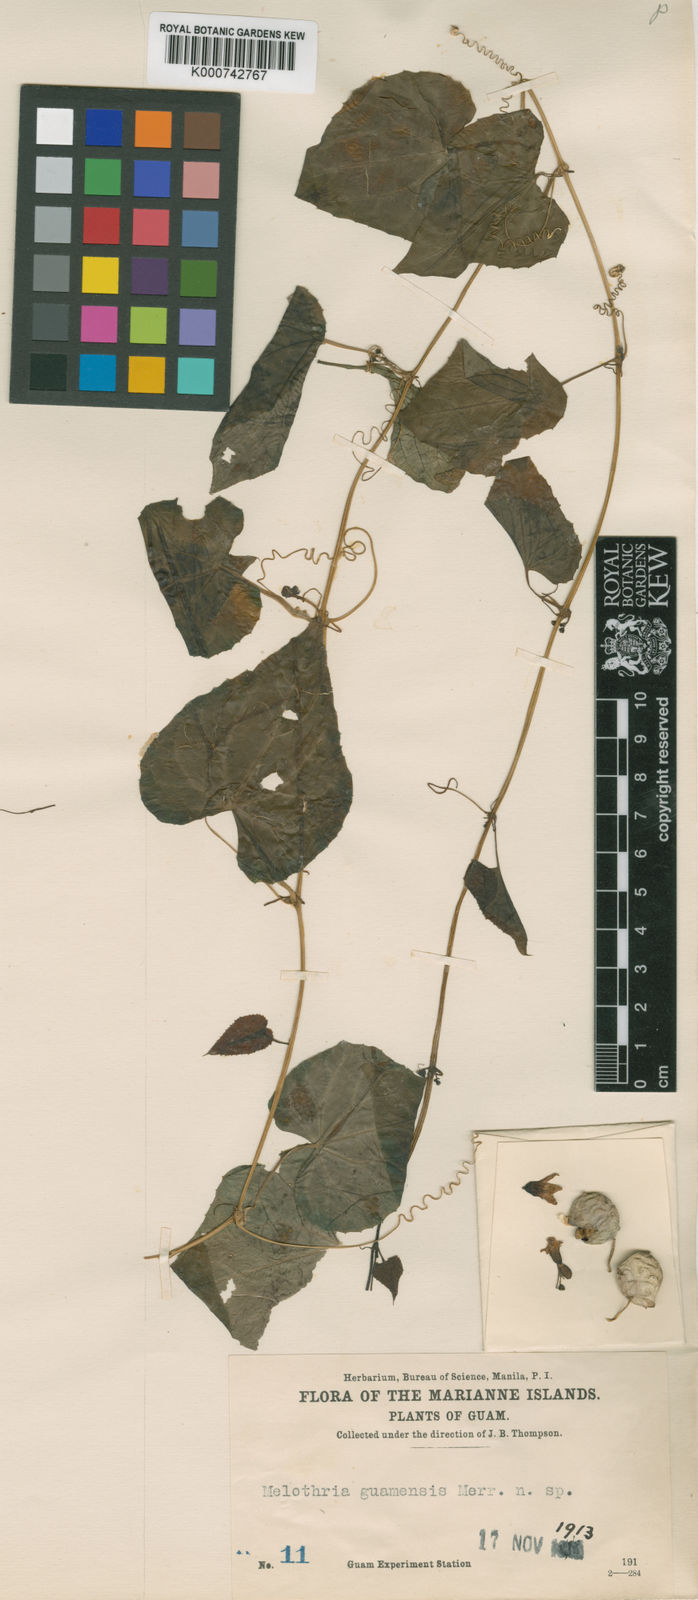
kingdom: Plantae
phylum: Tracheophyta
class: Magnoliopsida
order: Cucurbitales
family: Cucurbitaceae
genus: Zehneria
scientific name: Zehneria guamensis
